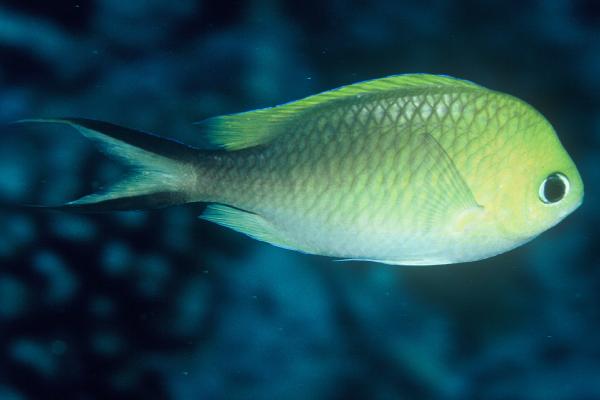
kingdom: Animalia
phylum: Chordata
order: Perciformes
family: Pomacentridae
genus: Chromis
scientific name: Chromis ternatensis
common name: Ternate chromis
